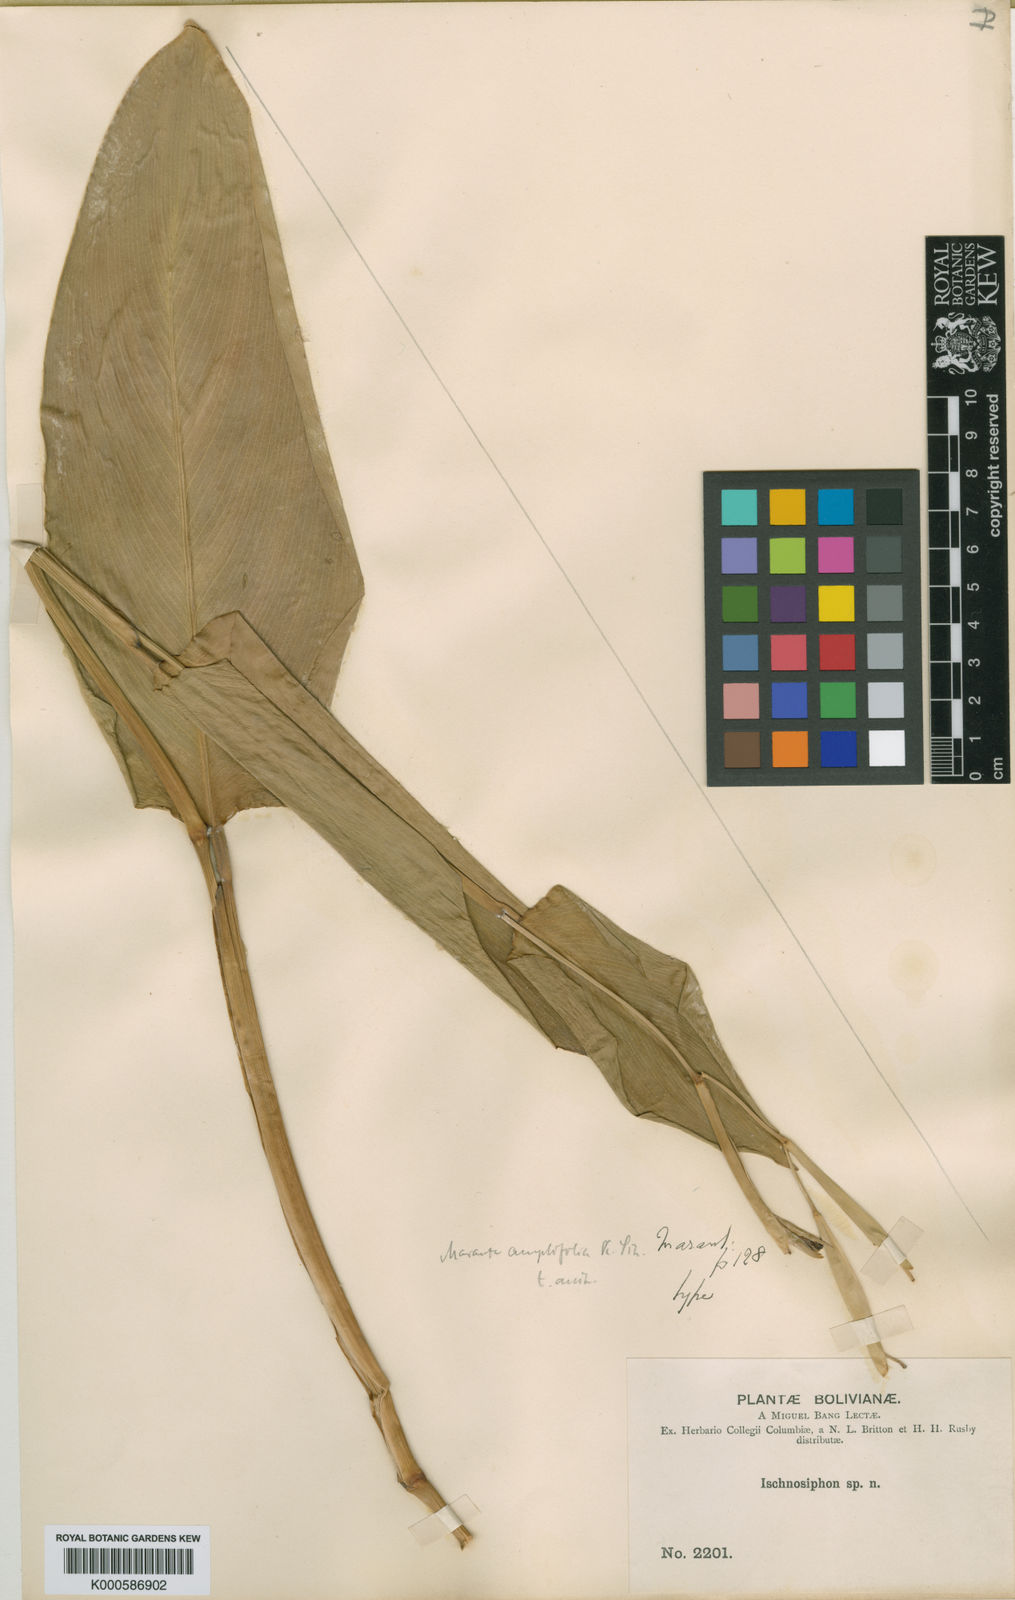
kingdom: Plantae
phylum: Tracheophyta
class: Liliopsida
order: Zingiberales
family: Marantaceae
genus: Maranta
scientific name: Maranta amplifolia
